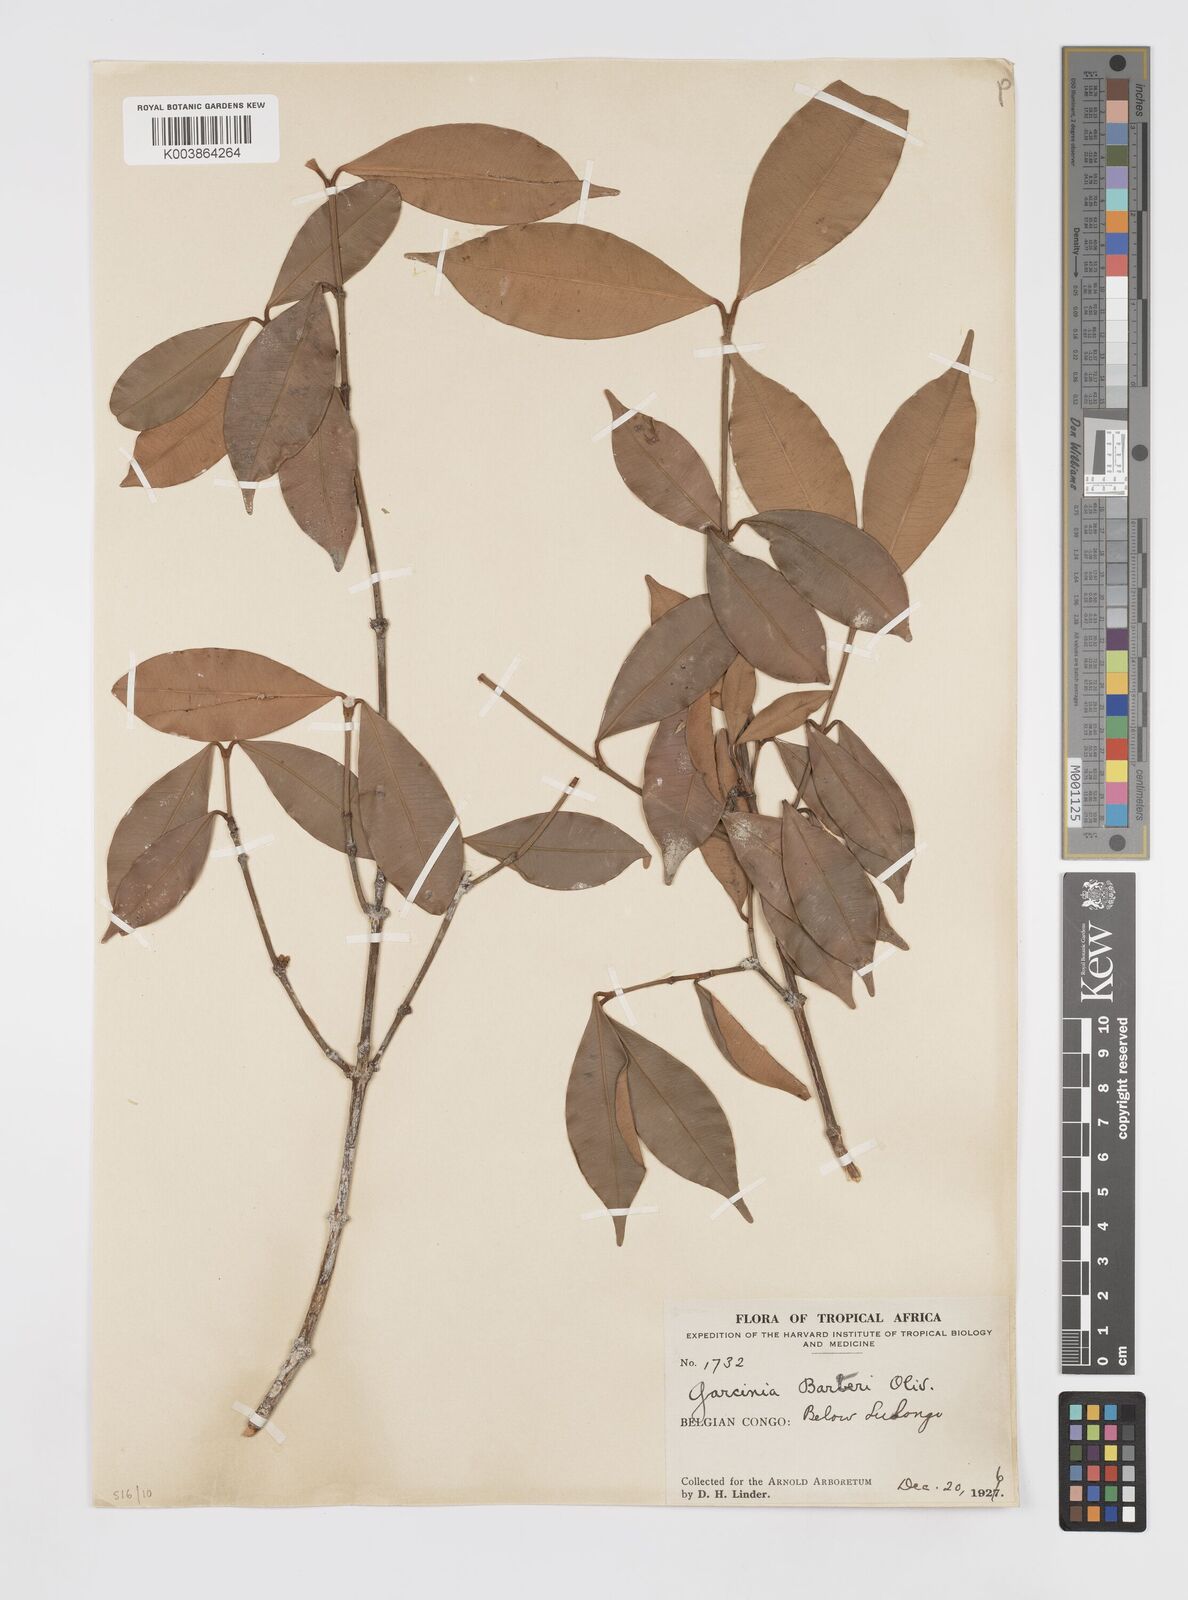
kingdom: Plantae
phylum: Tracheophyta
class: Magnoliopsida
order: Malpighiales
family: Clusiaceae
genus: Garcinia
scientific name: Garcinia ovalifolia
